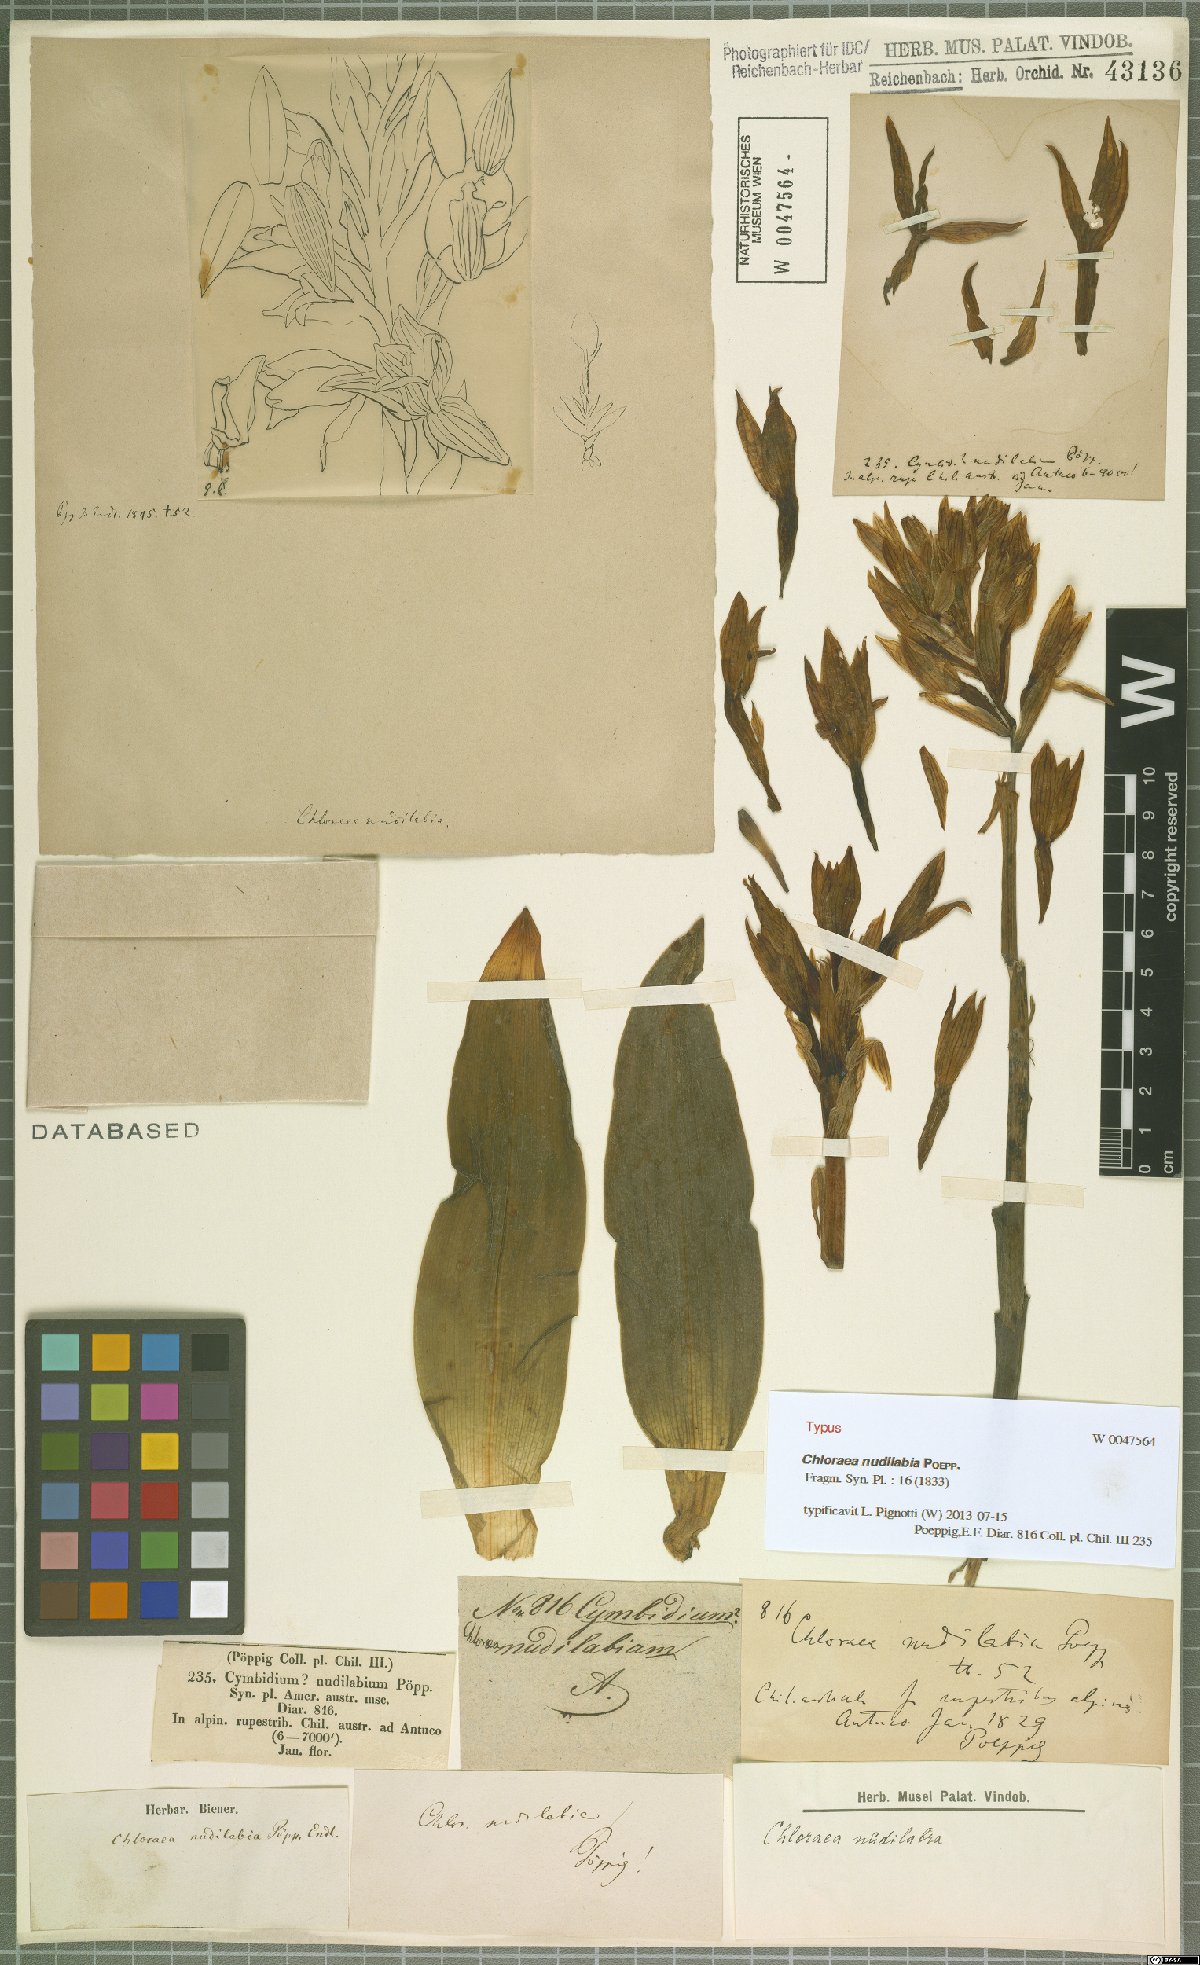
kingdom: Plantae
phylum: Tracheophyta
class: Liliopsida
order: Asparagales
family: Orchidaceae
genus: Chloraea
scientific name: Chloraea nudilabia
